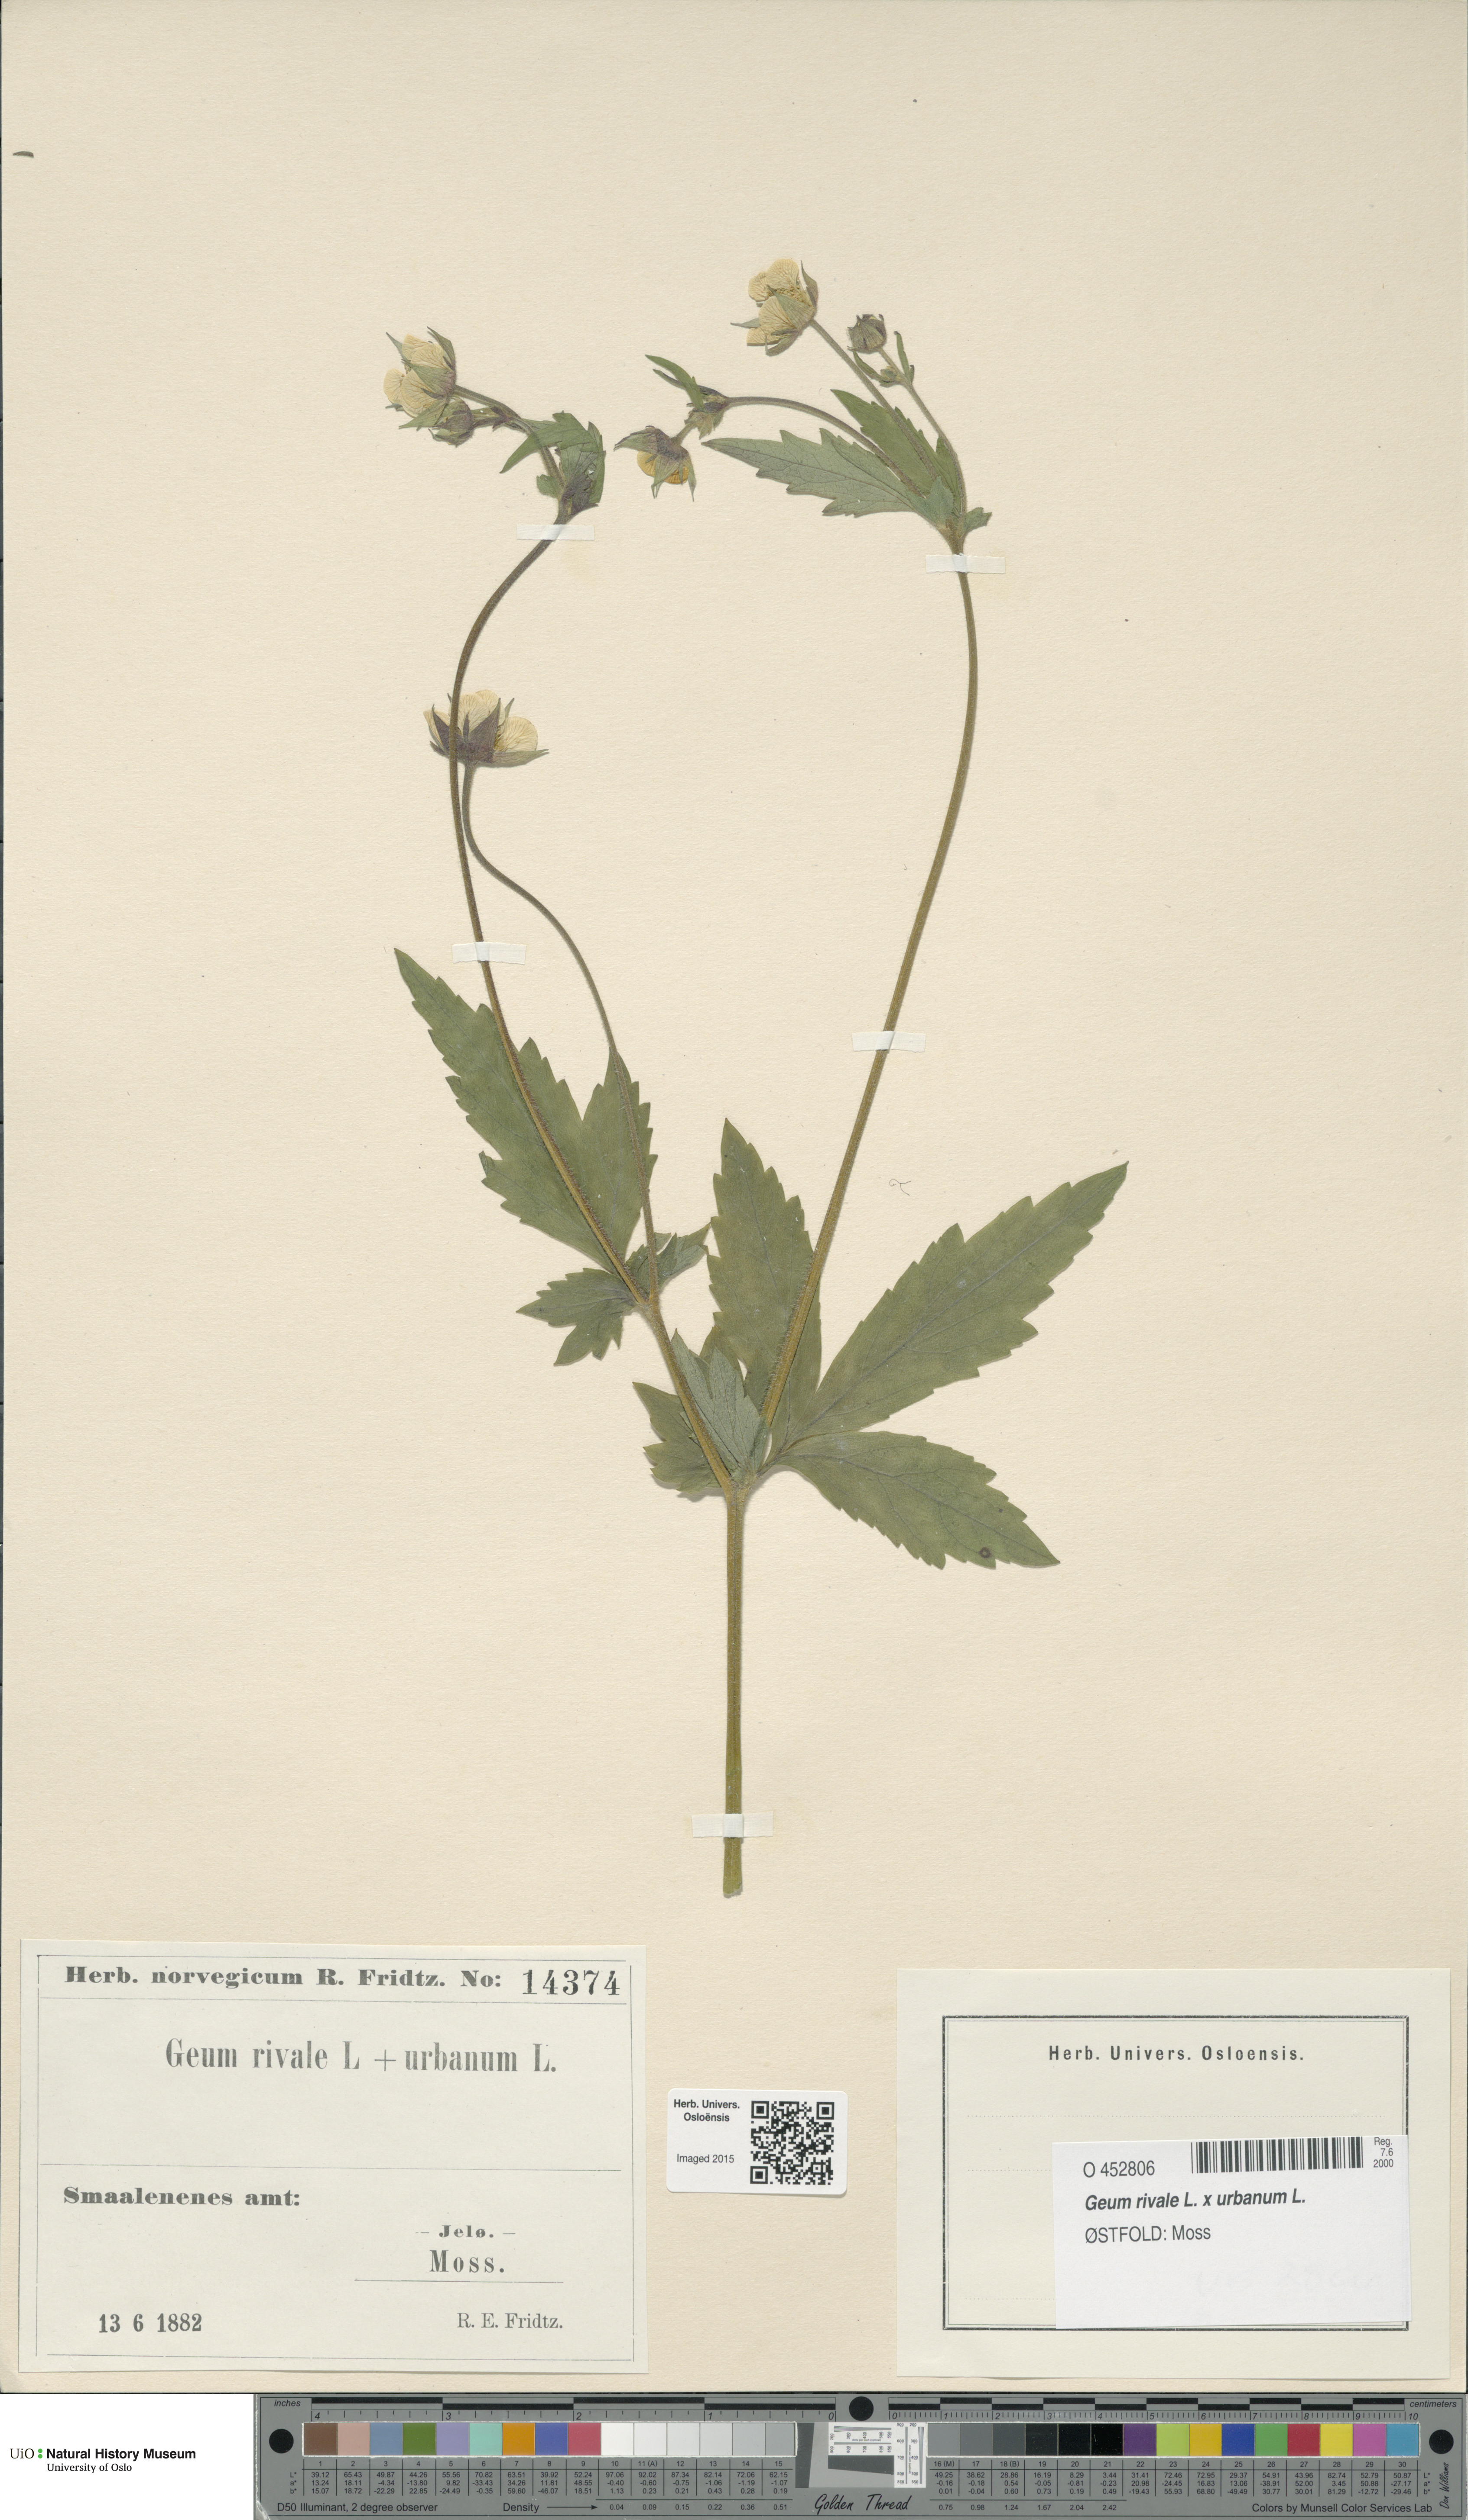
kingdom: Plantae
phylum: Tracheophyta
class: Magnoliopsida
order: Rosales
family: Rosaceae
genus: Geum
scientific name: Geum
